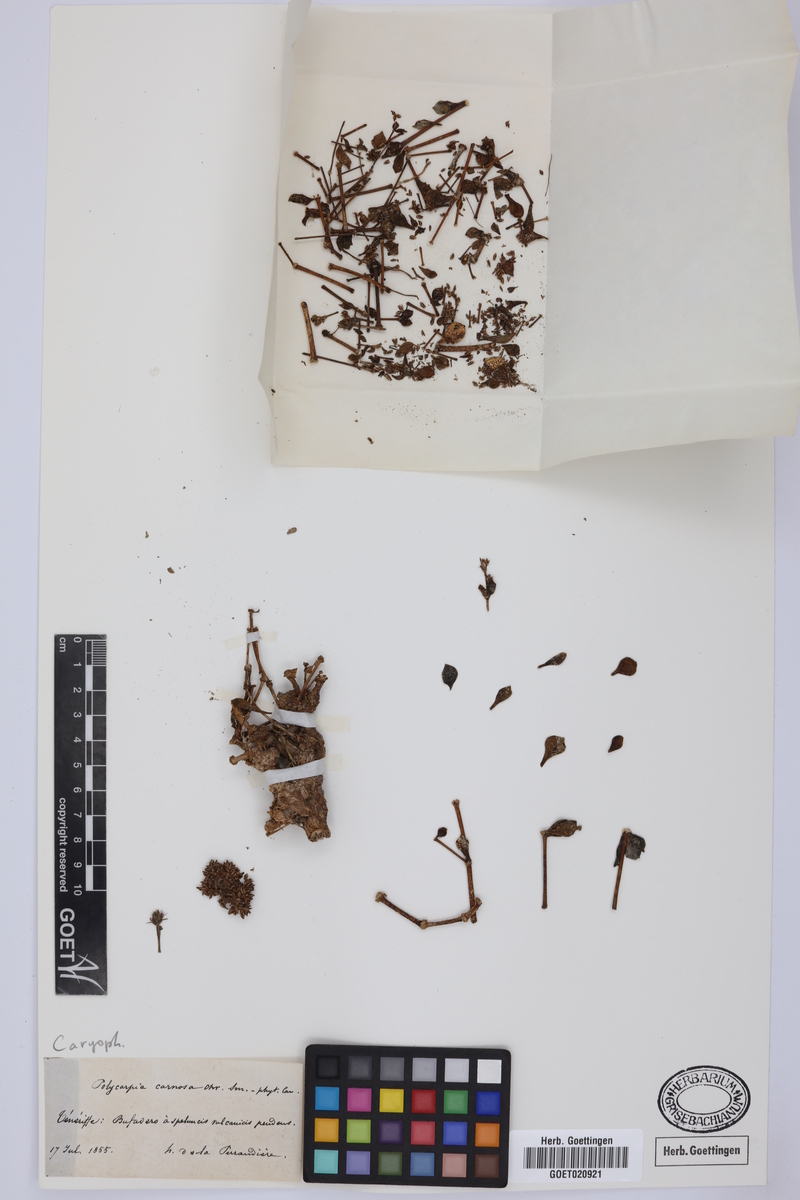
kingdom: Plantae
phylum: Tracheophyta
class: Magnoliopsida
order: Caryophyllales
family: Caryophyllaceae
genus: Polycarpaea
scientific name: Polycarpaea carnosa
